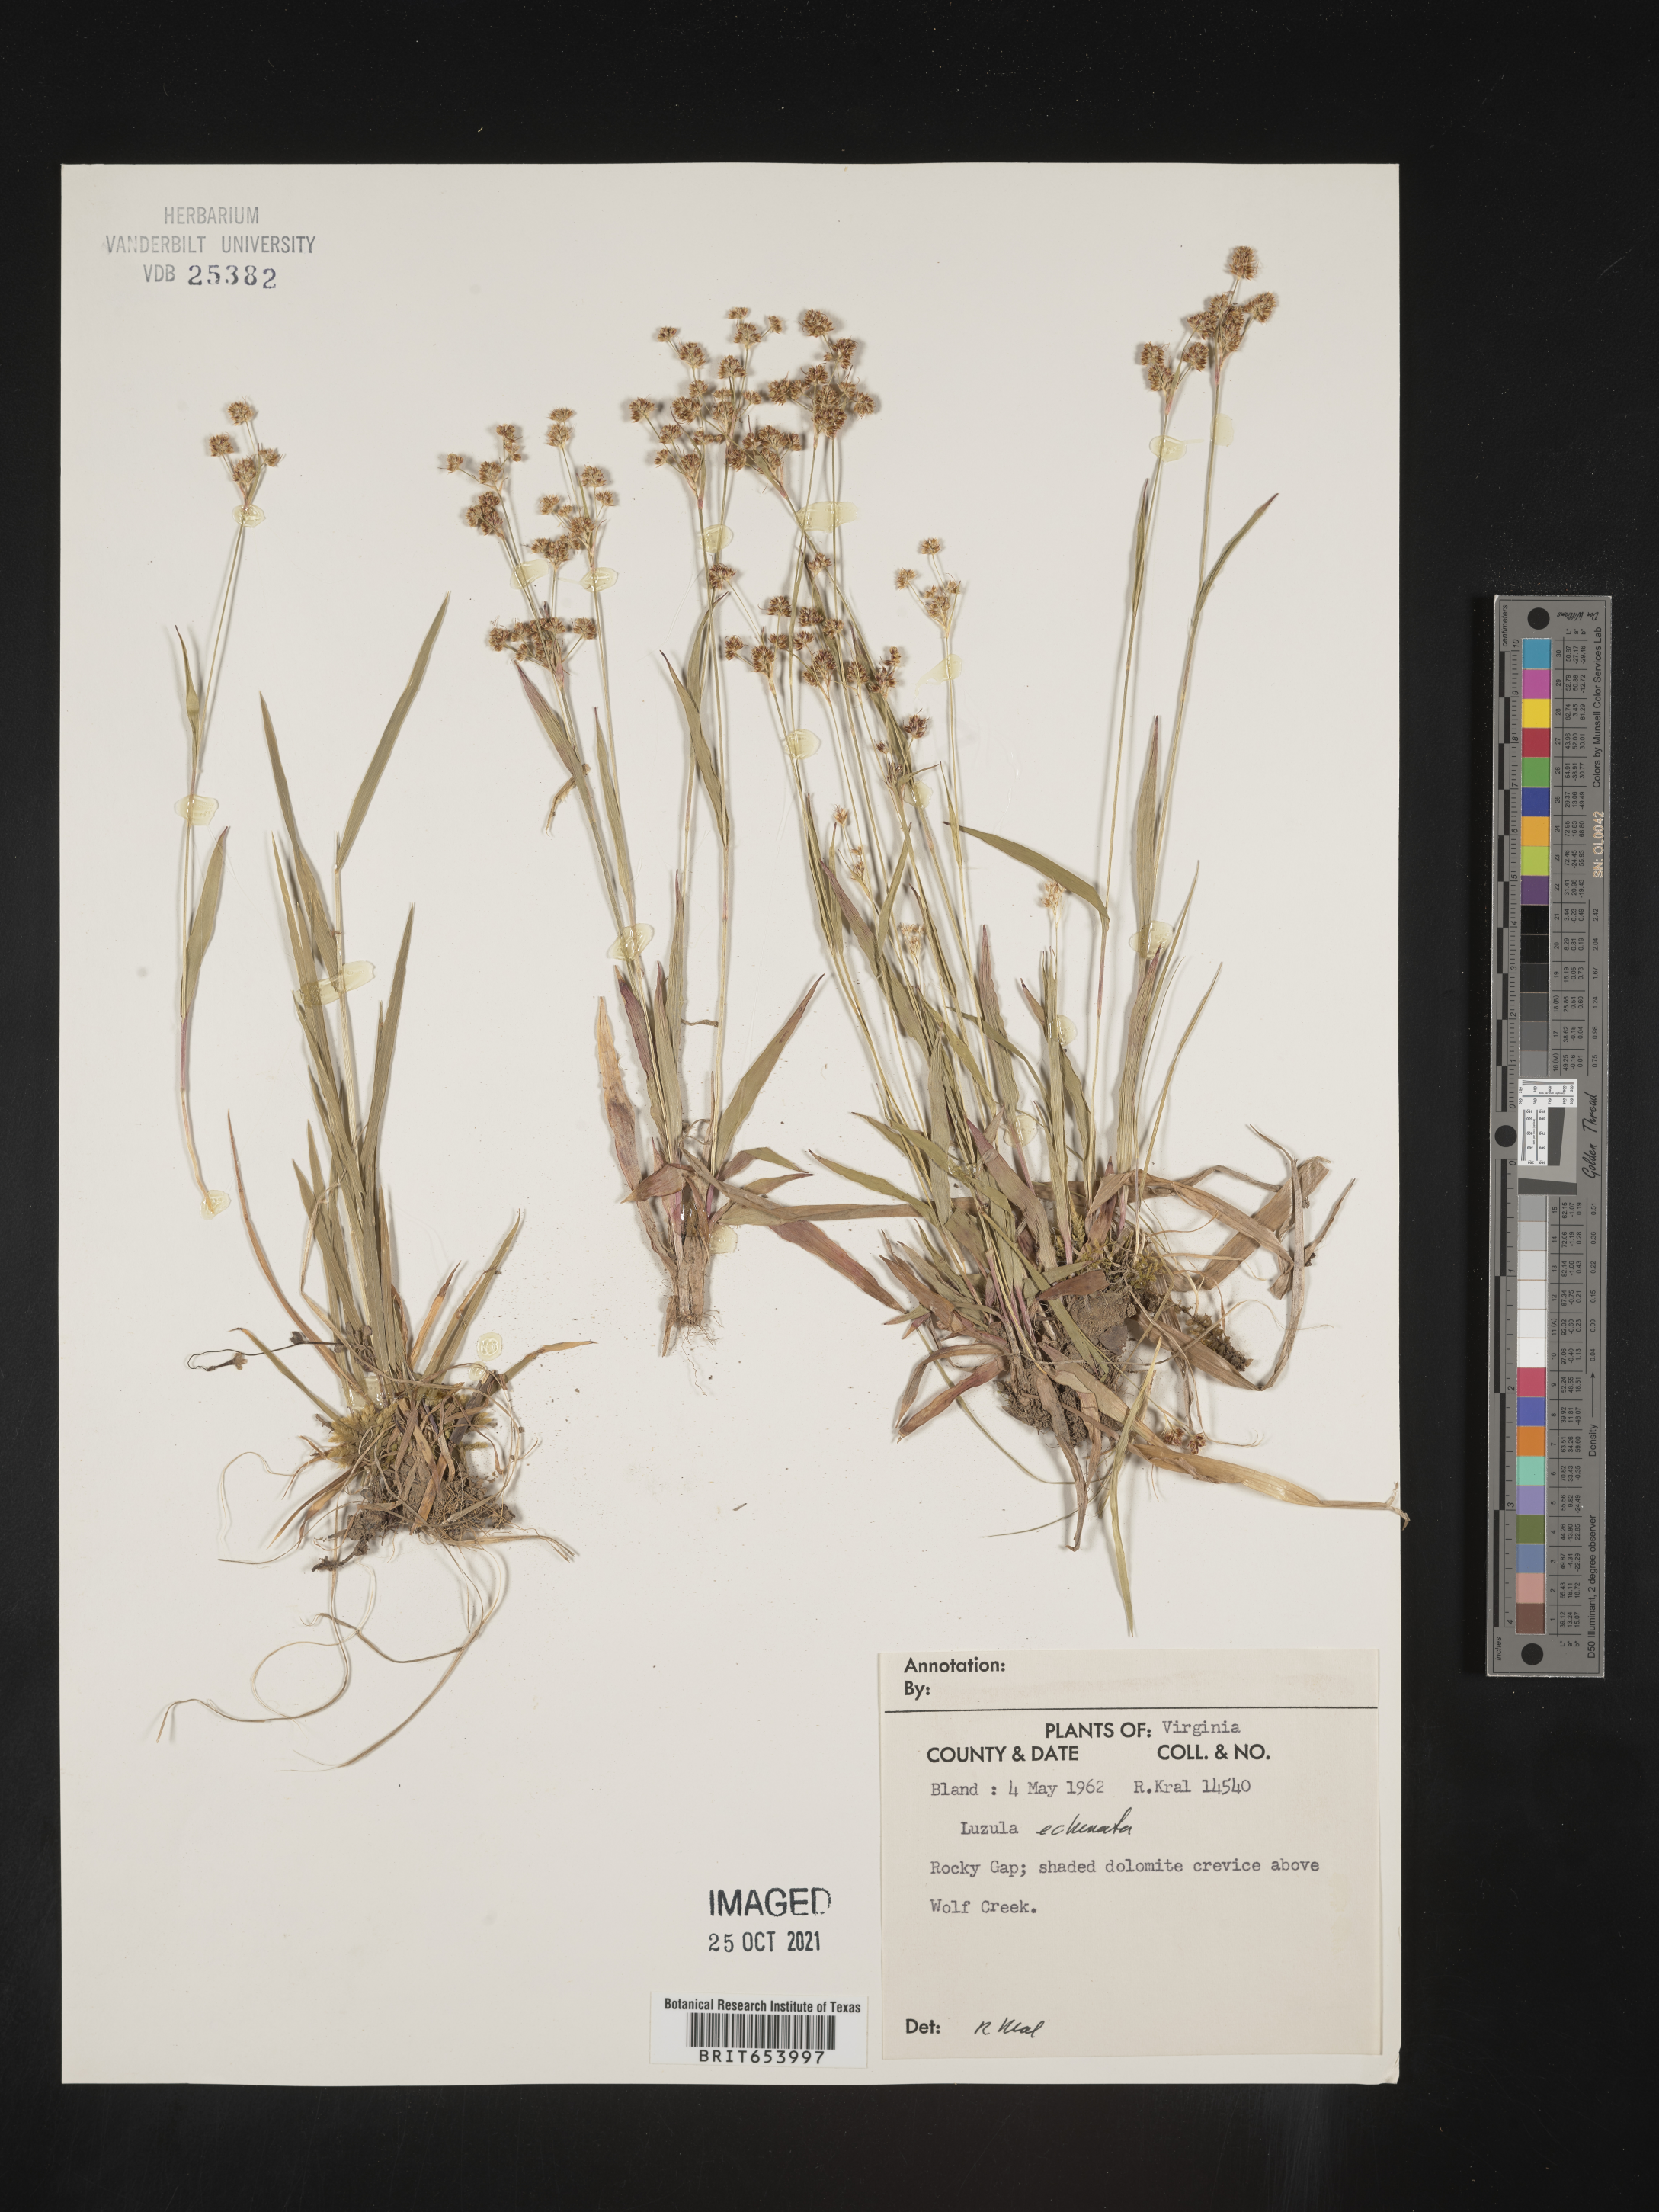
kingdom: Plantae
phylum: Tracheophyta
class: Liliopsida
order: Poales
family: Juncaceae
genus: Luzula
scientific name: Luzula echinata
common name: Hedgehog woodrush
